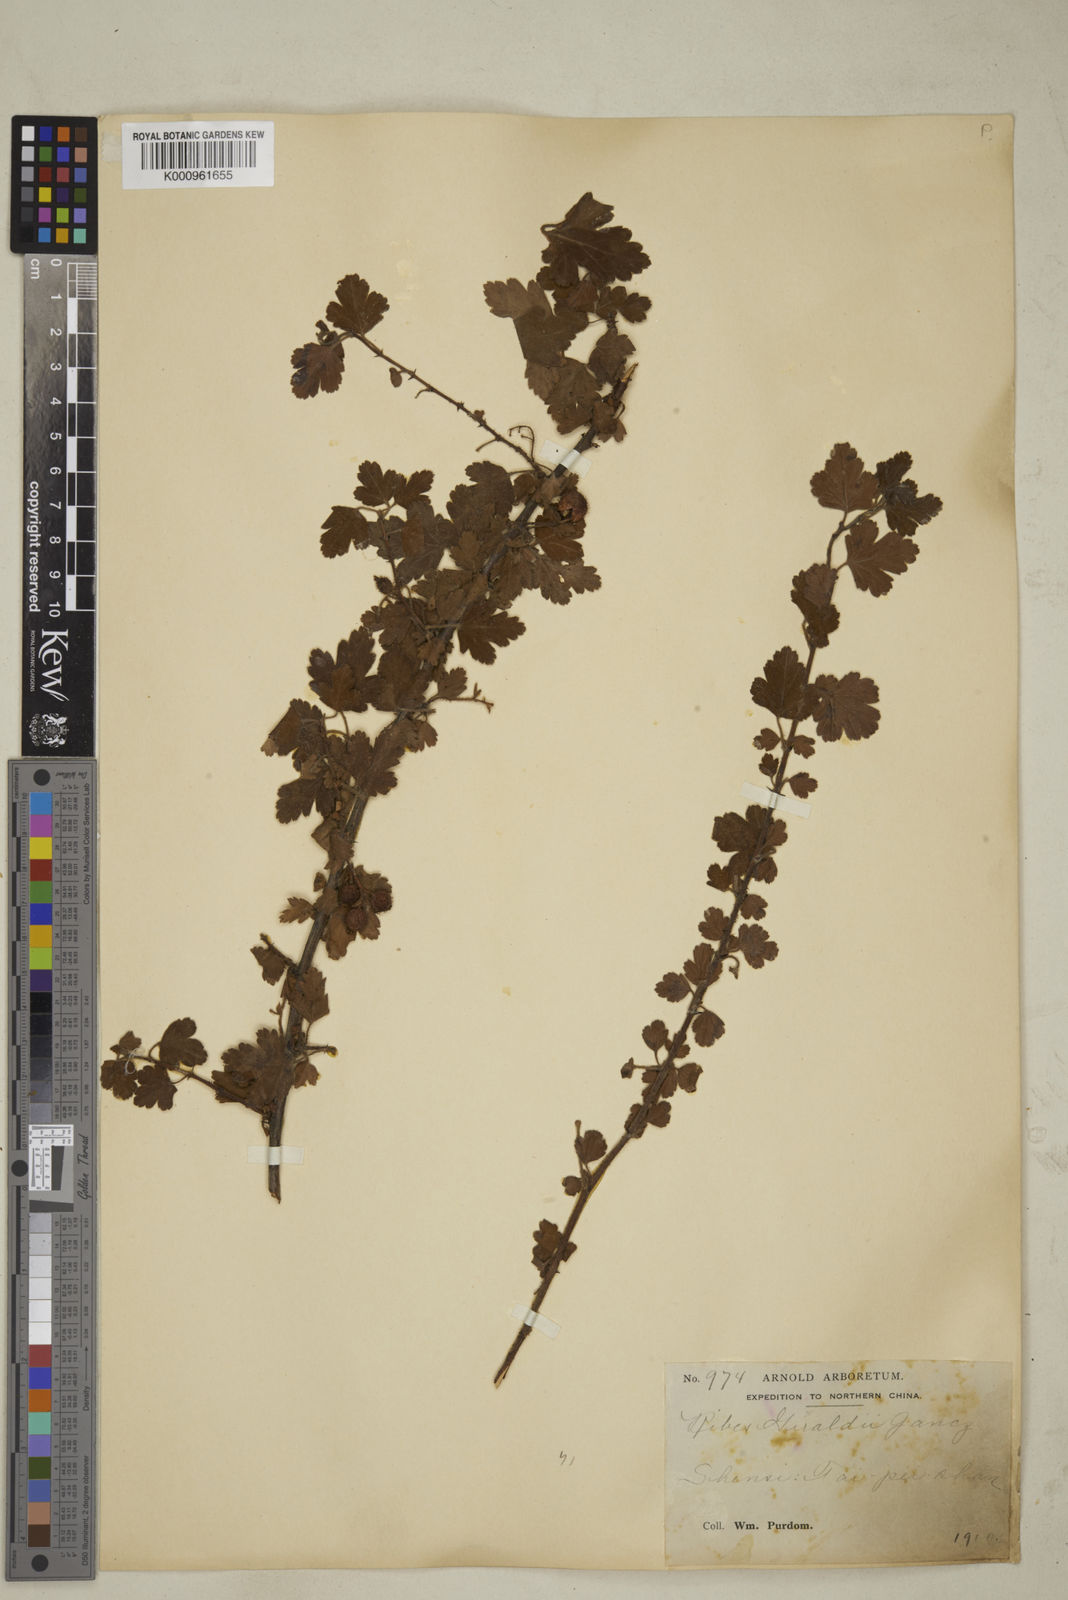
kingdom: Plantae
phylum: Tracheophyta
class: Magnoliopsida
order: Saxifragales
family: Grossulariaceae
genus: Ribes
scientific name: Ribes giraldii
